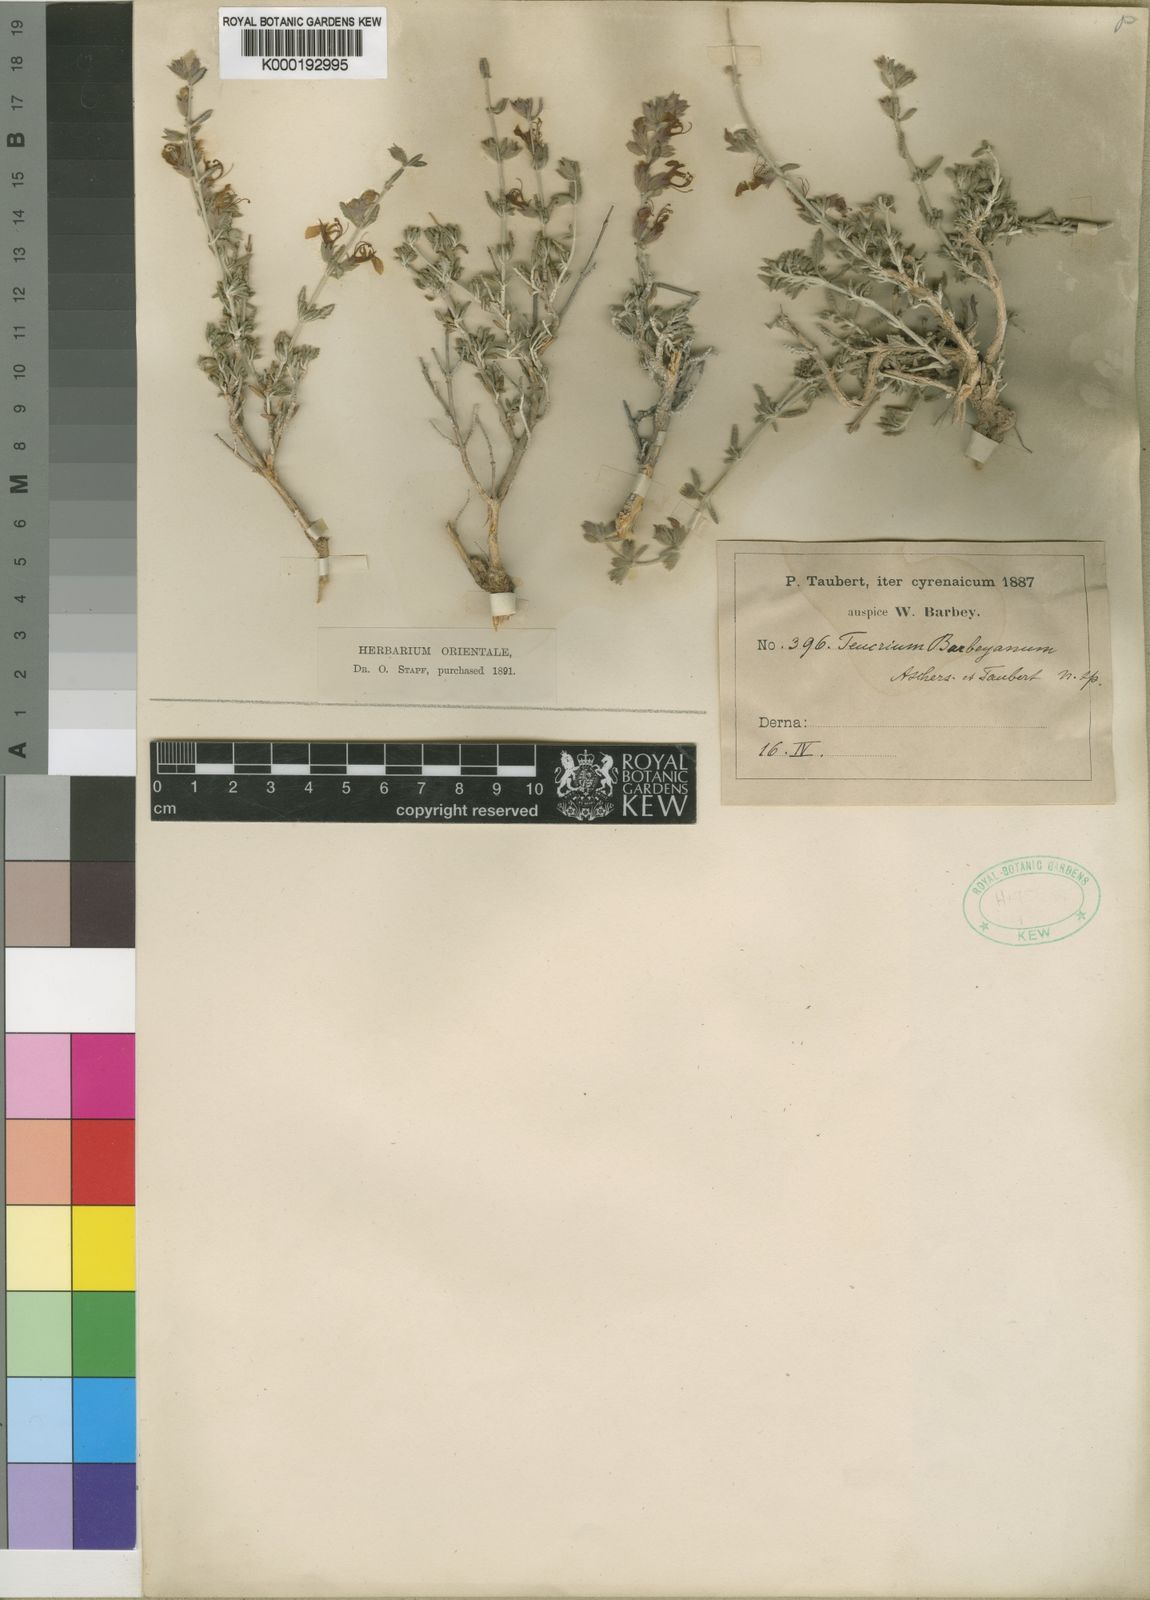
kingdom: Plantae
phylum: Tracheophyta
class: Magnoliopsida
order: Lamiales
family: Lamiaceae
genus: Teucrium
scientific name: Teucrium barbeyanum
